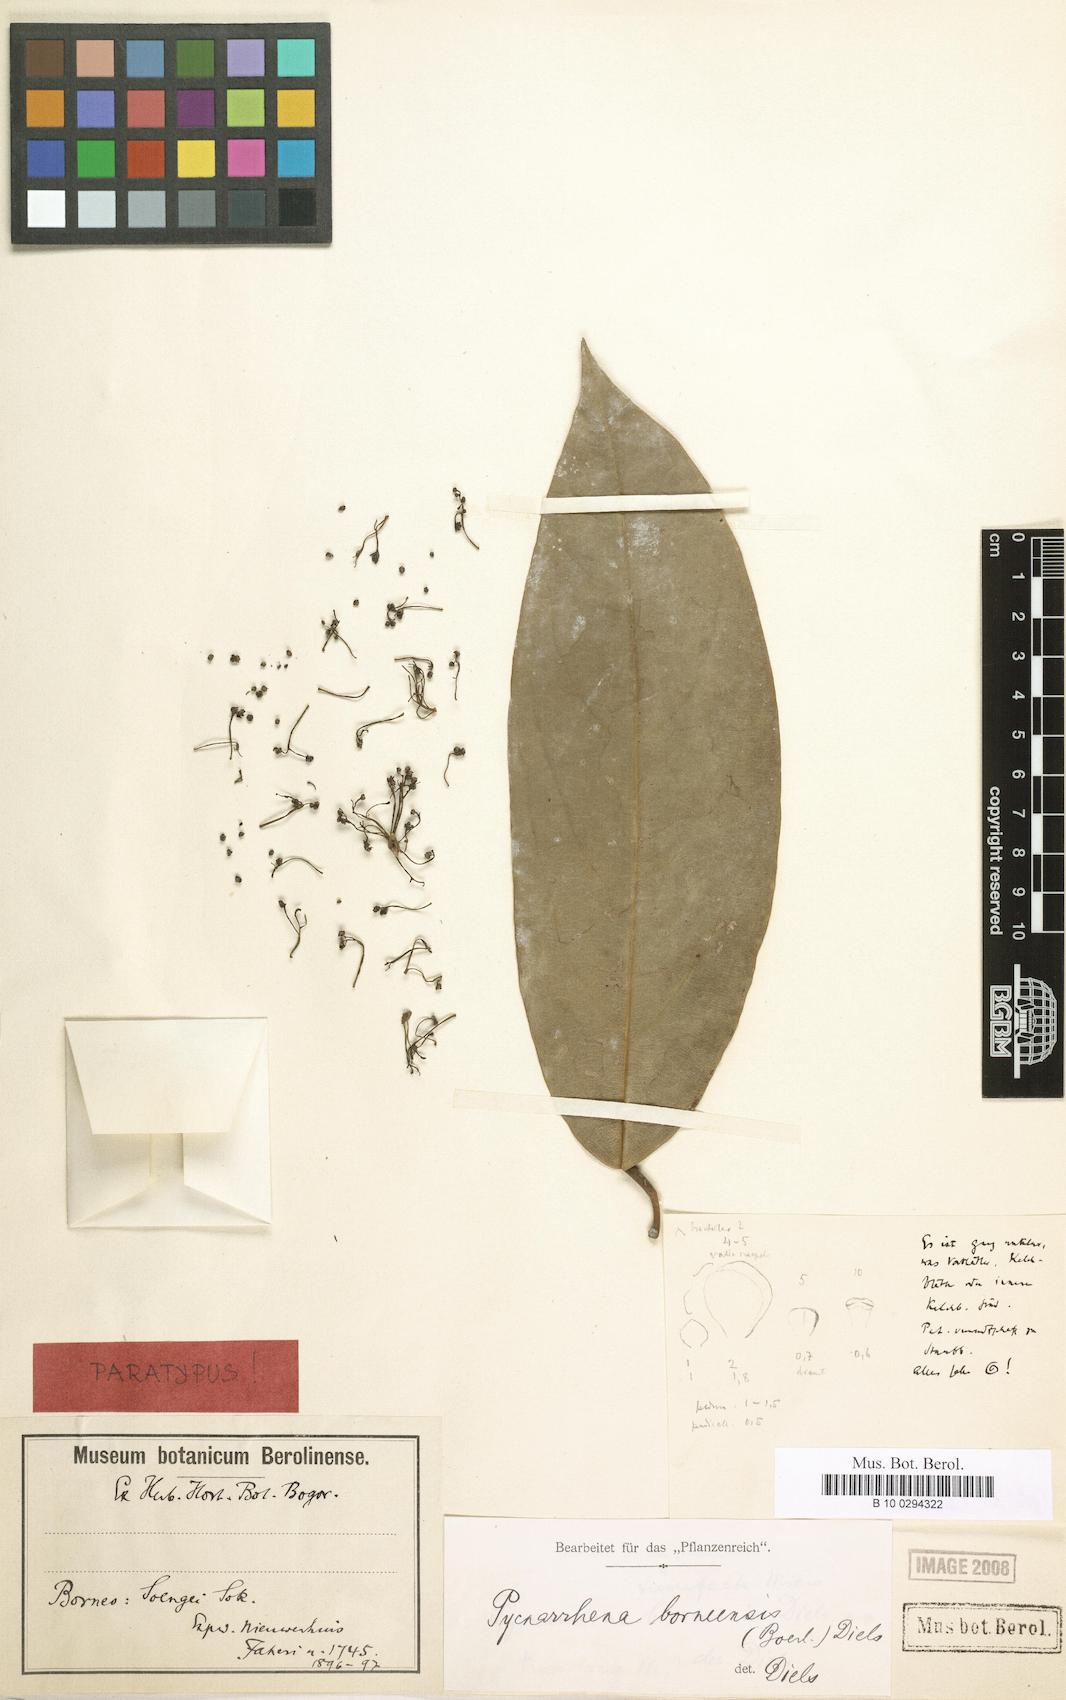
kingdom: Plantae
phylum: Tracheophyta
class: Magnoliopsida
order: Ranunculales
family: Menispermaceae
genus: Pycnarrhena
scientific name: Pycnarrhena tumefacta
